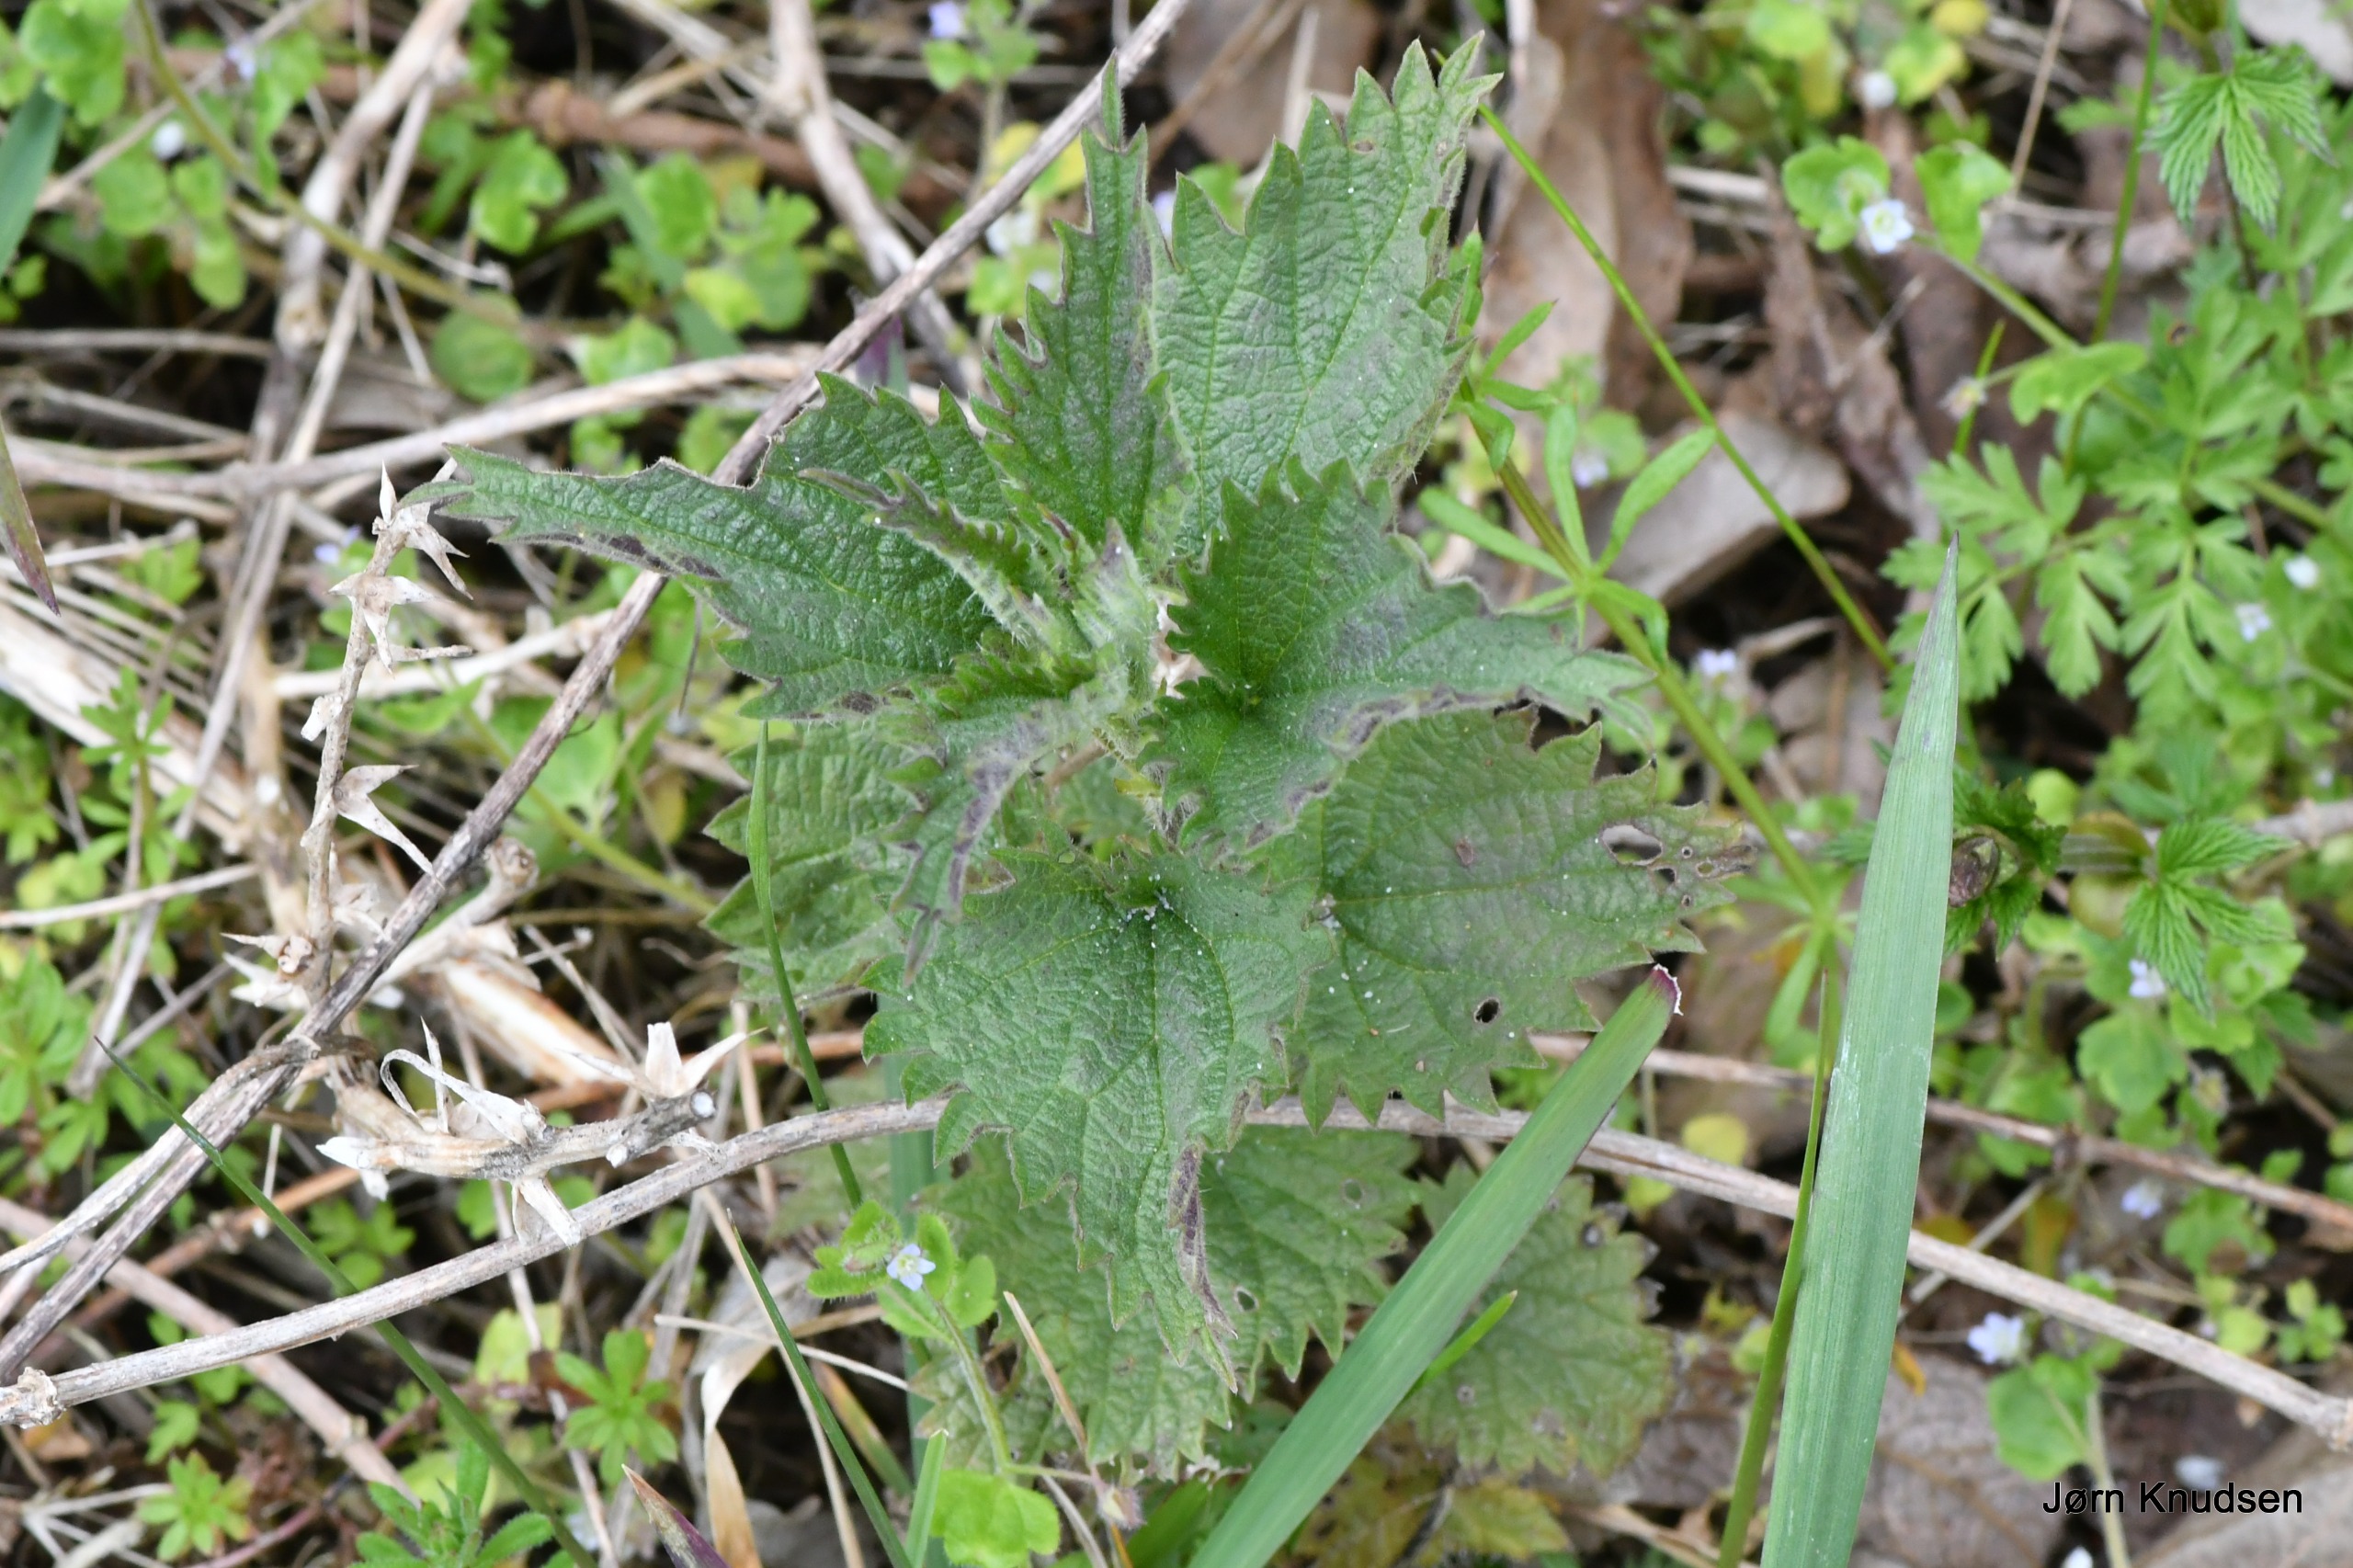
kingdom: Plantae
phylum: Tracheophyta
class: Magnoliopsida
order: Rosales
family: Urticaceae
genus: Urtica
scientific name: Urtica dioica
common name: Stor nælde
